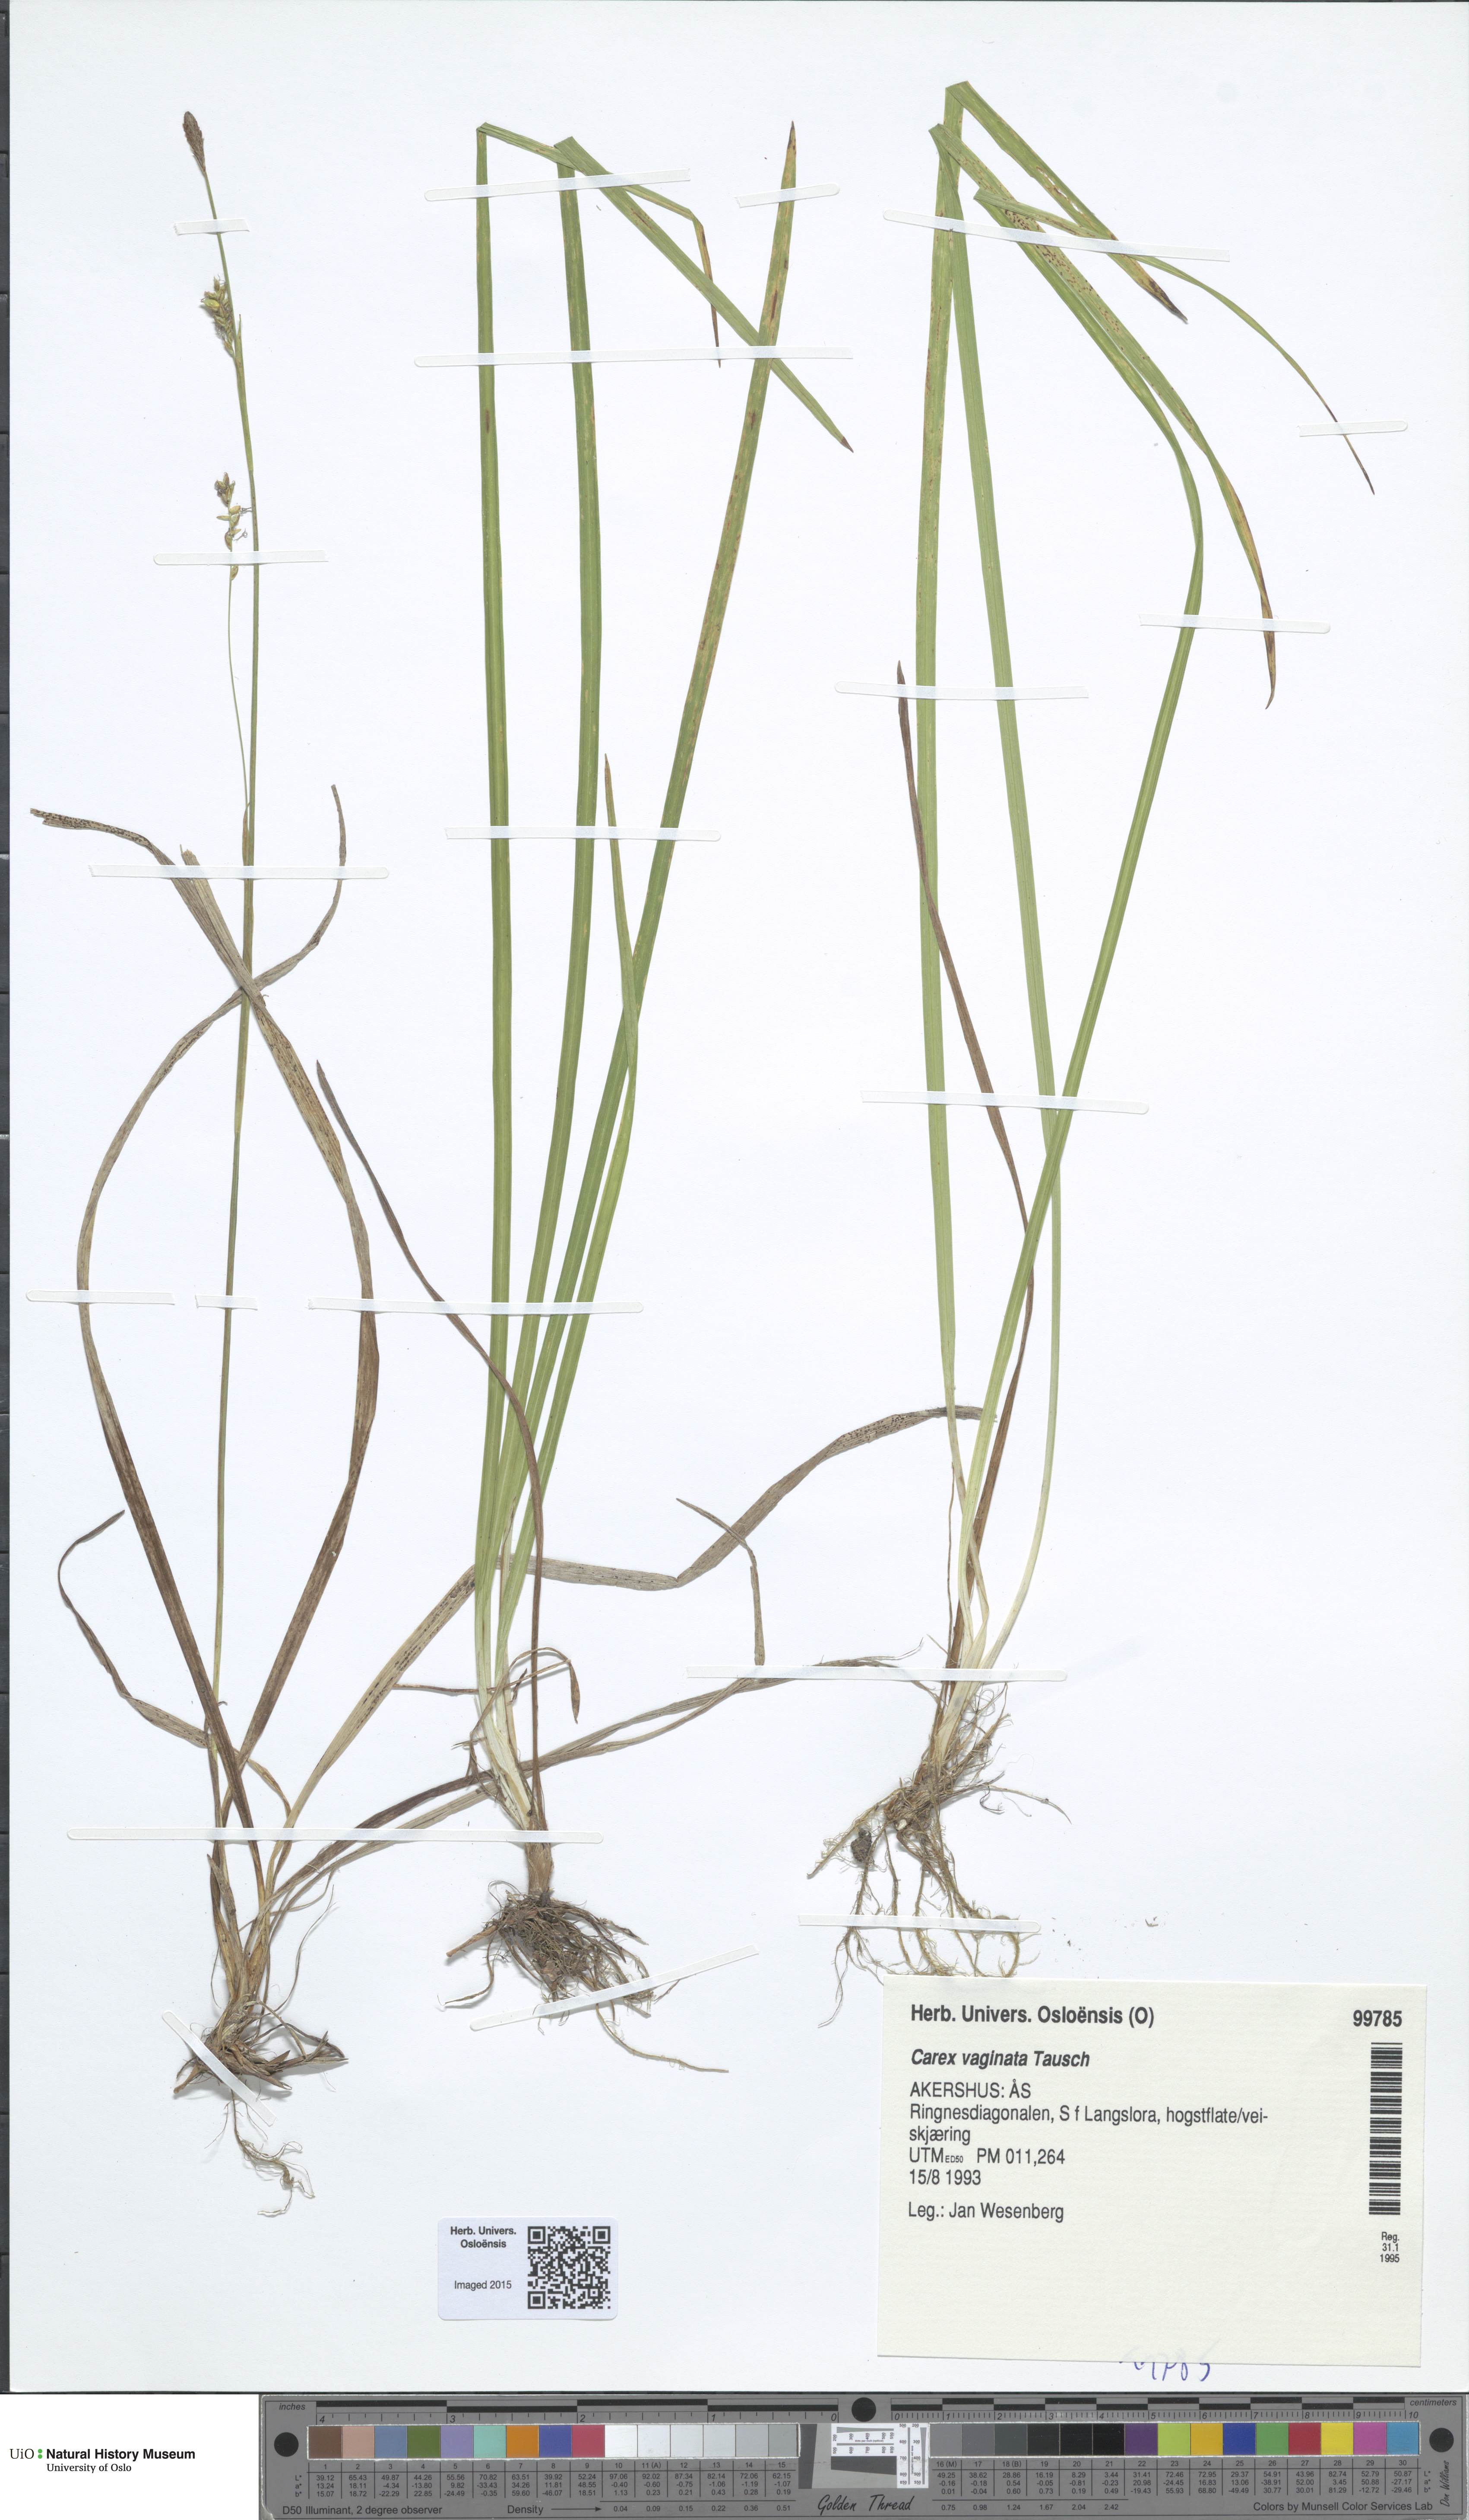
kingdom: Plantae
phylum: Tracheophyta
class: Liliopsida
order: Poales
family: Cyperaceae
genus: Carex
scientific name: Carex vaginata
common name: Sheathed sedge
